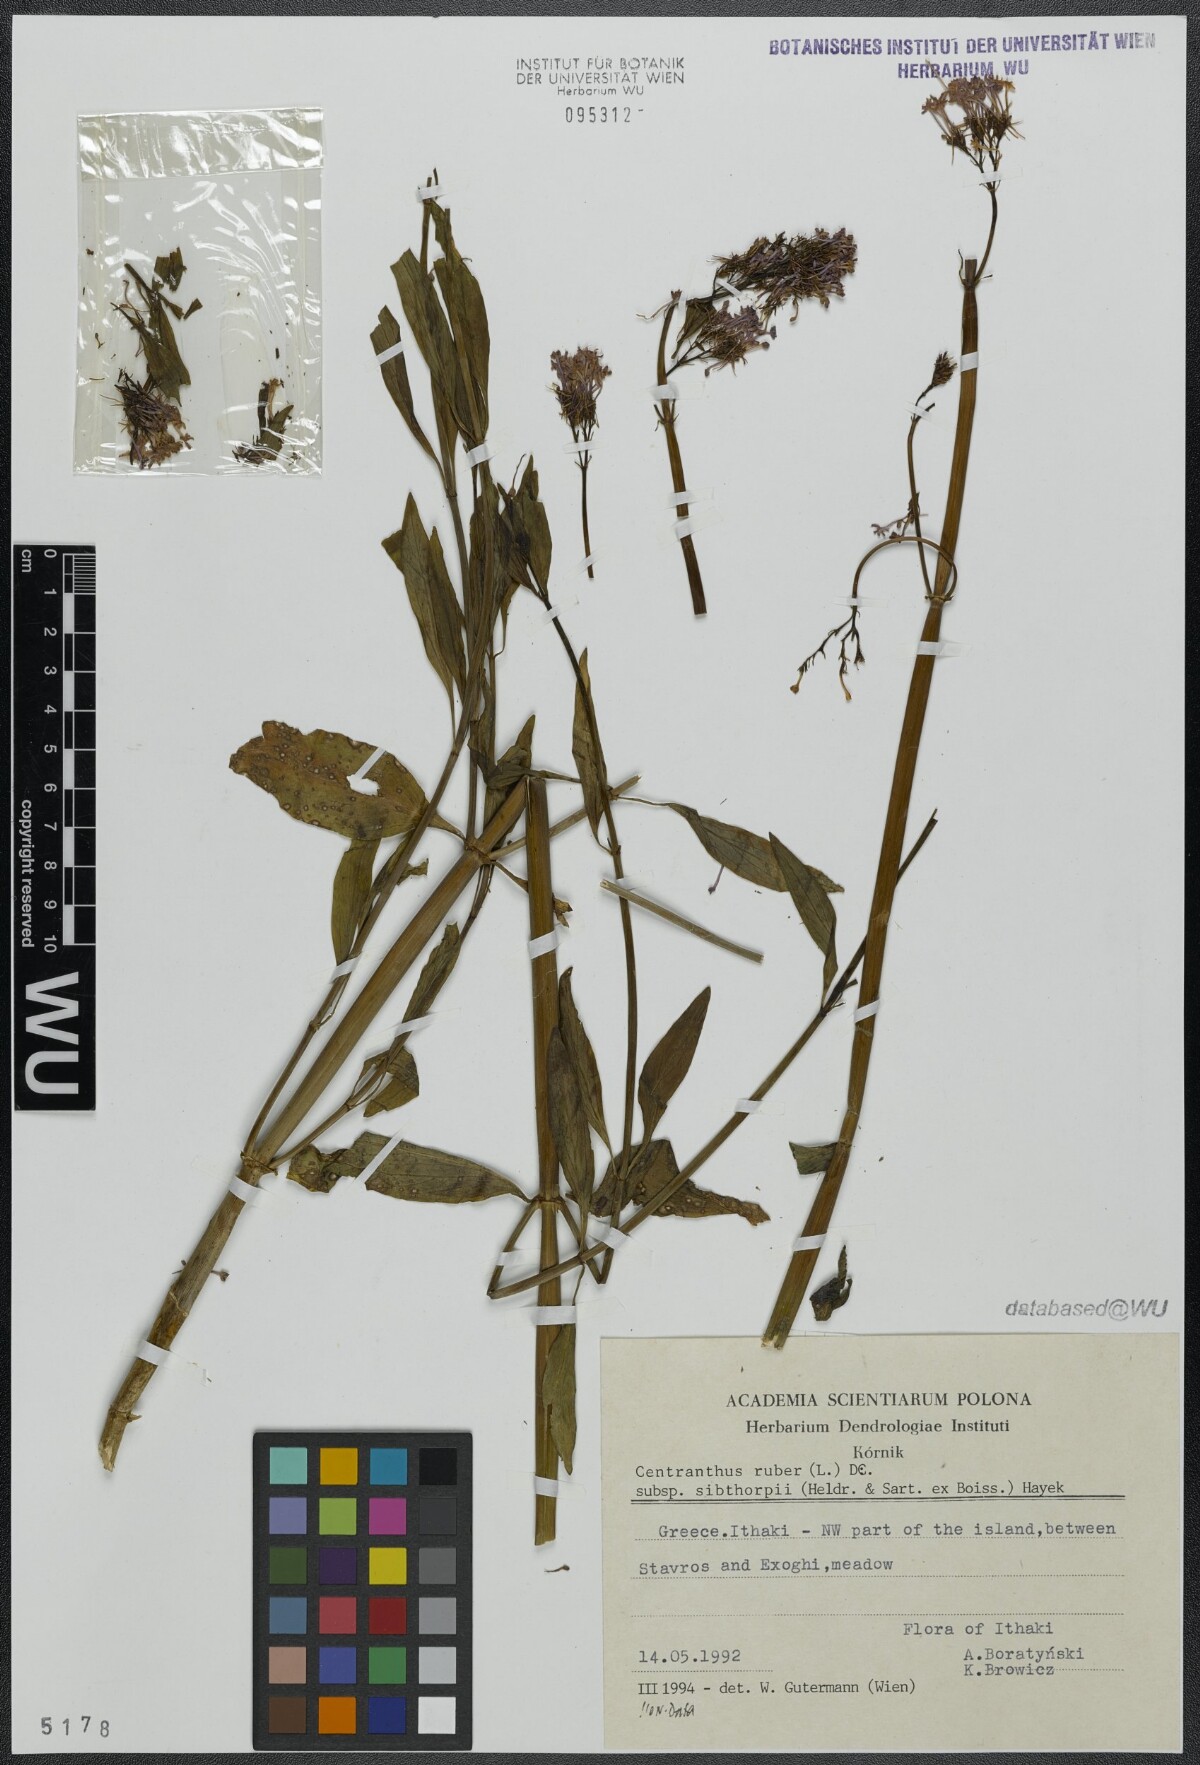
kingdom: Plantae
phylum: Tracheophyta
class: Magnoliopsida
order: Dipsacales
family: Caprifoliaceae
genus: Centranthus
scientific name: Centranthus ruber
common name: Red valerian
